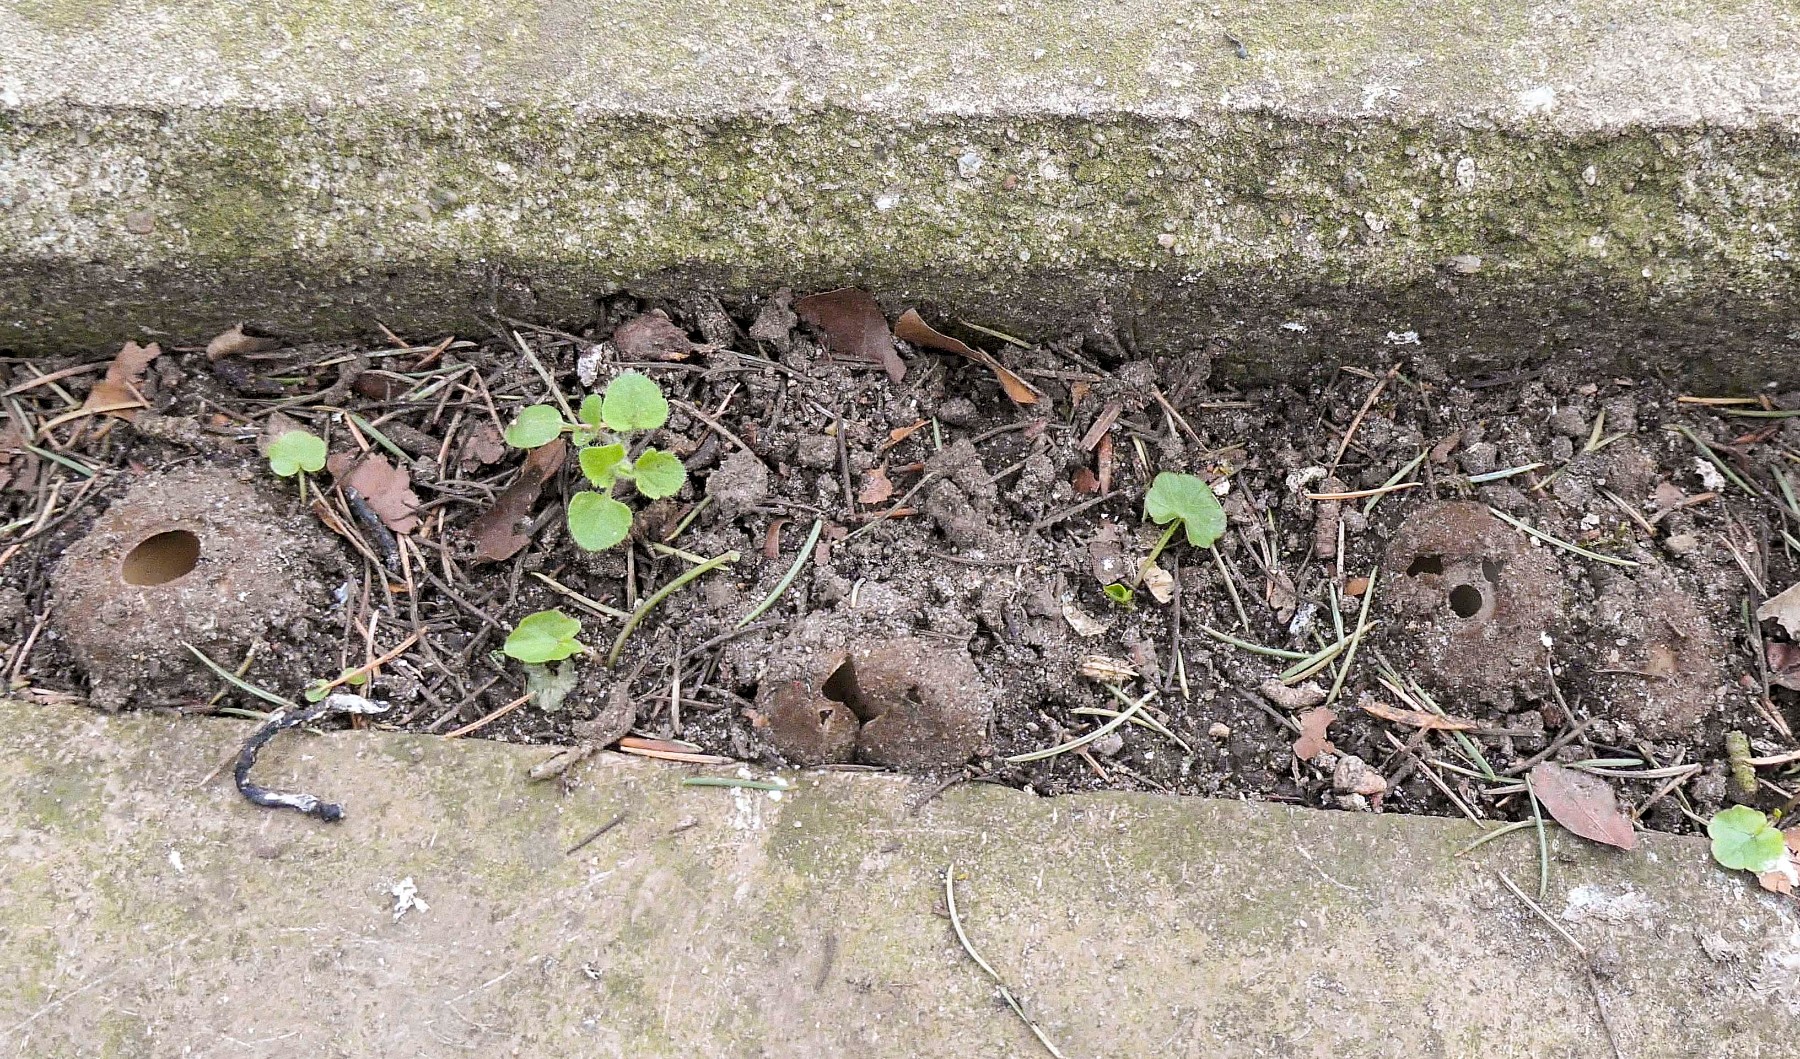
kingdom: Fungi
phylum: Ascomycota
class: Pezizomycetes
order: Pezizales
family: Pyronemataceae
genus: Geopora
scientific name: Geopora sumneriana
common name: vår-jordbæger
